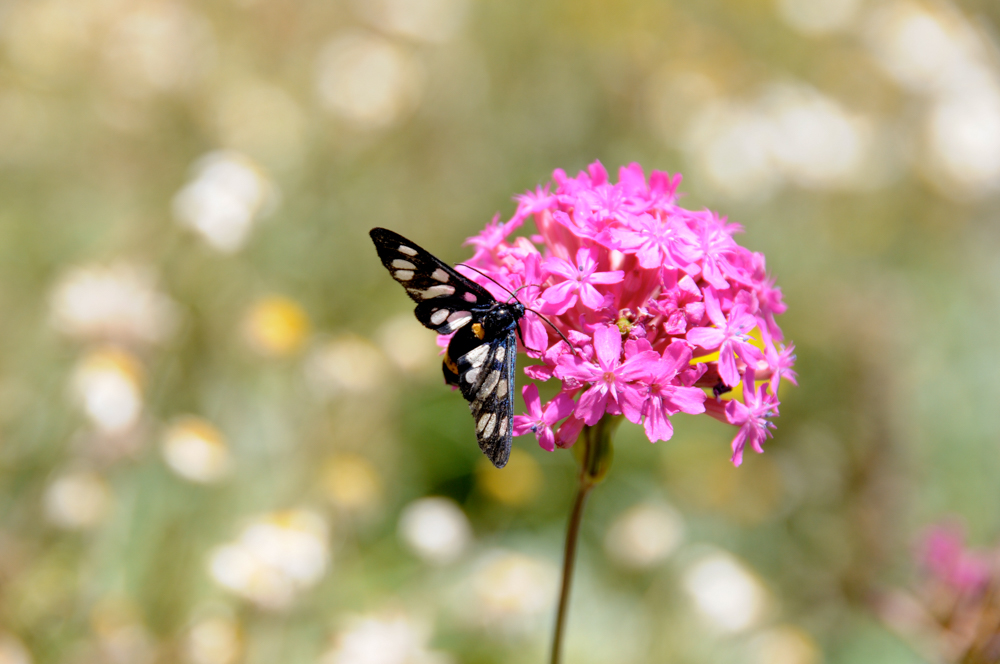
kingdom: Animalia
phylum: Arthropoda
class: Insecta
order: Lepidoptera
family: Erebidae
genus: Amata
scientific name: Amata phegea
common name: Nine-spotted
